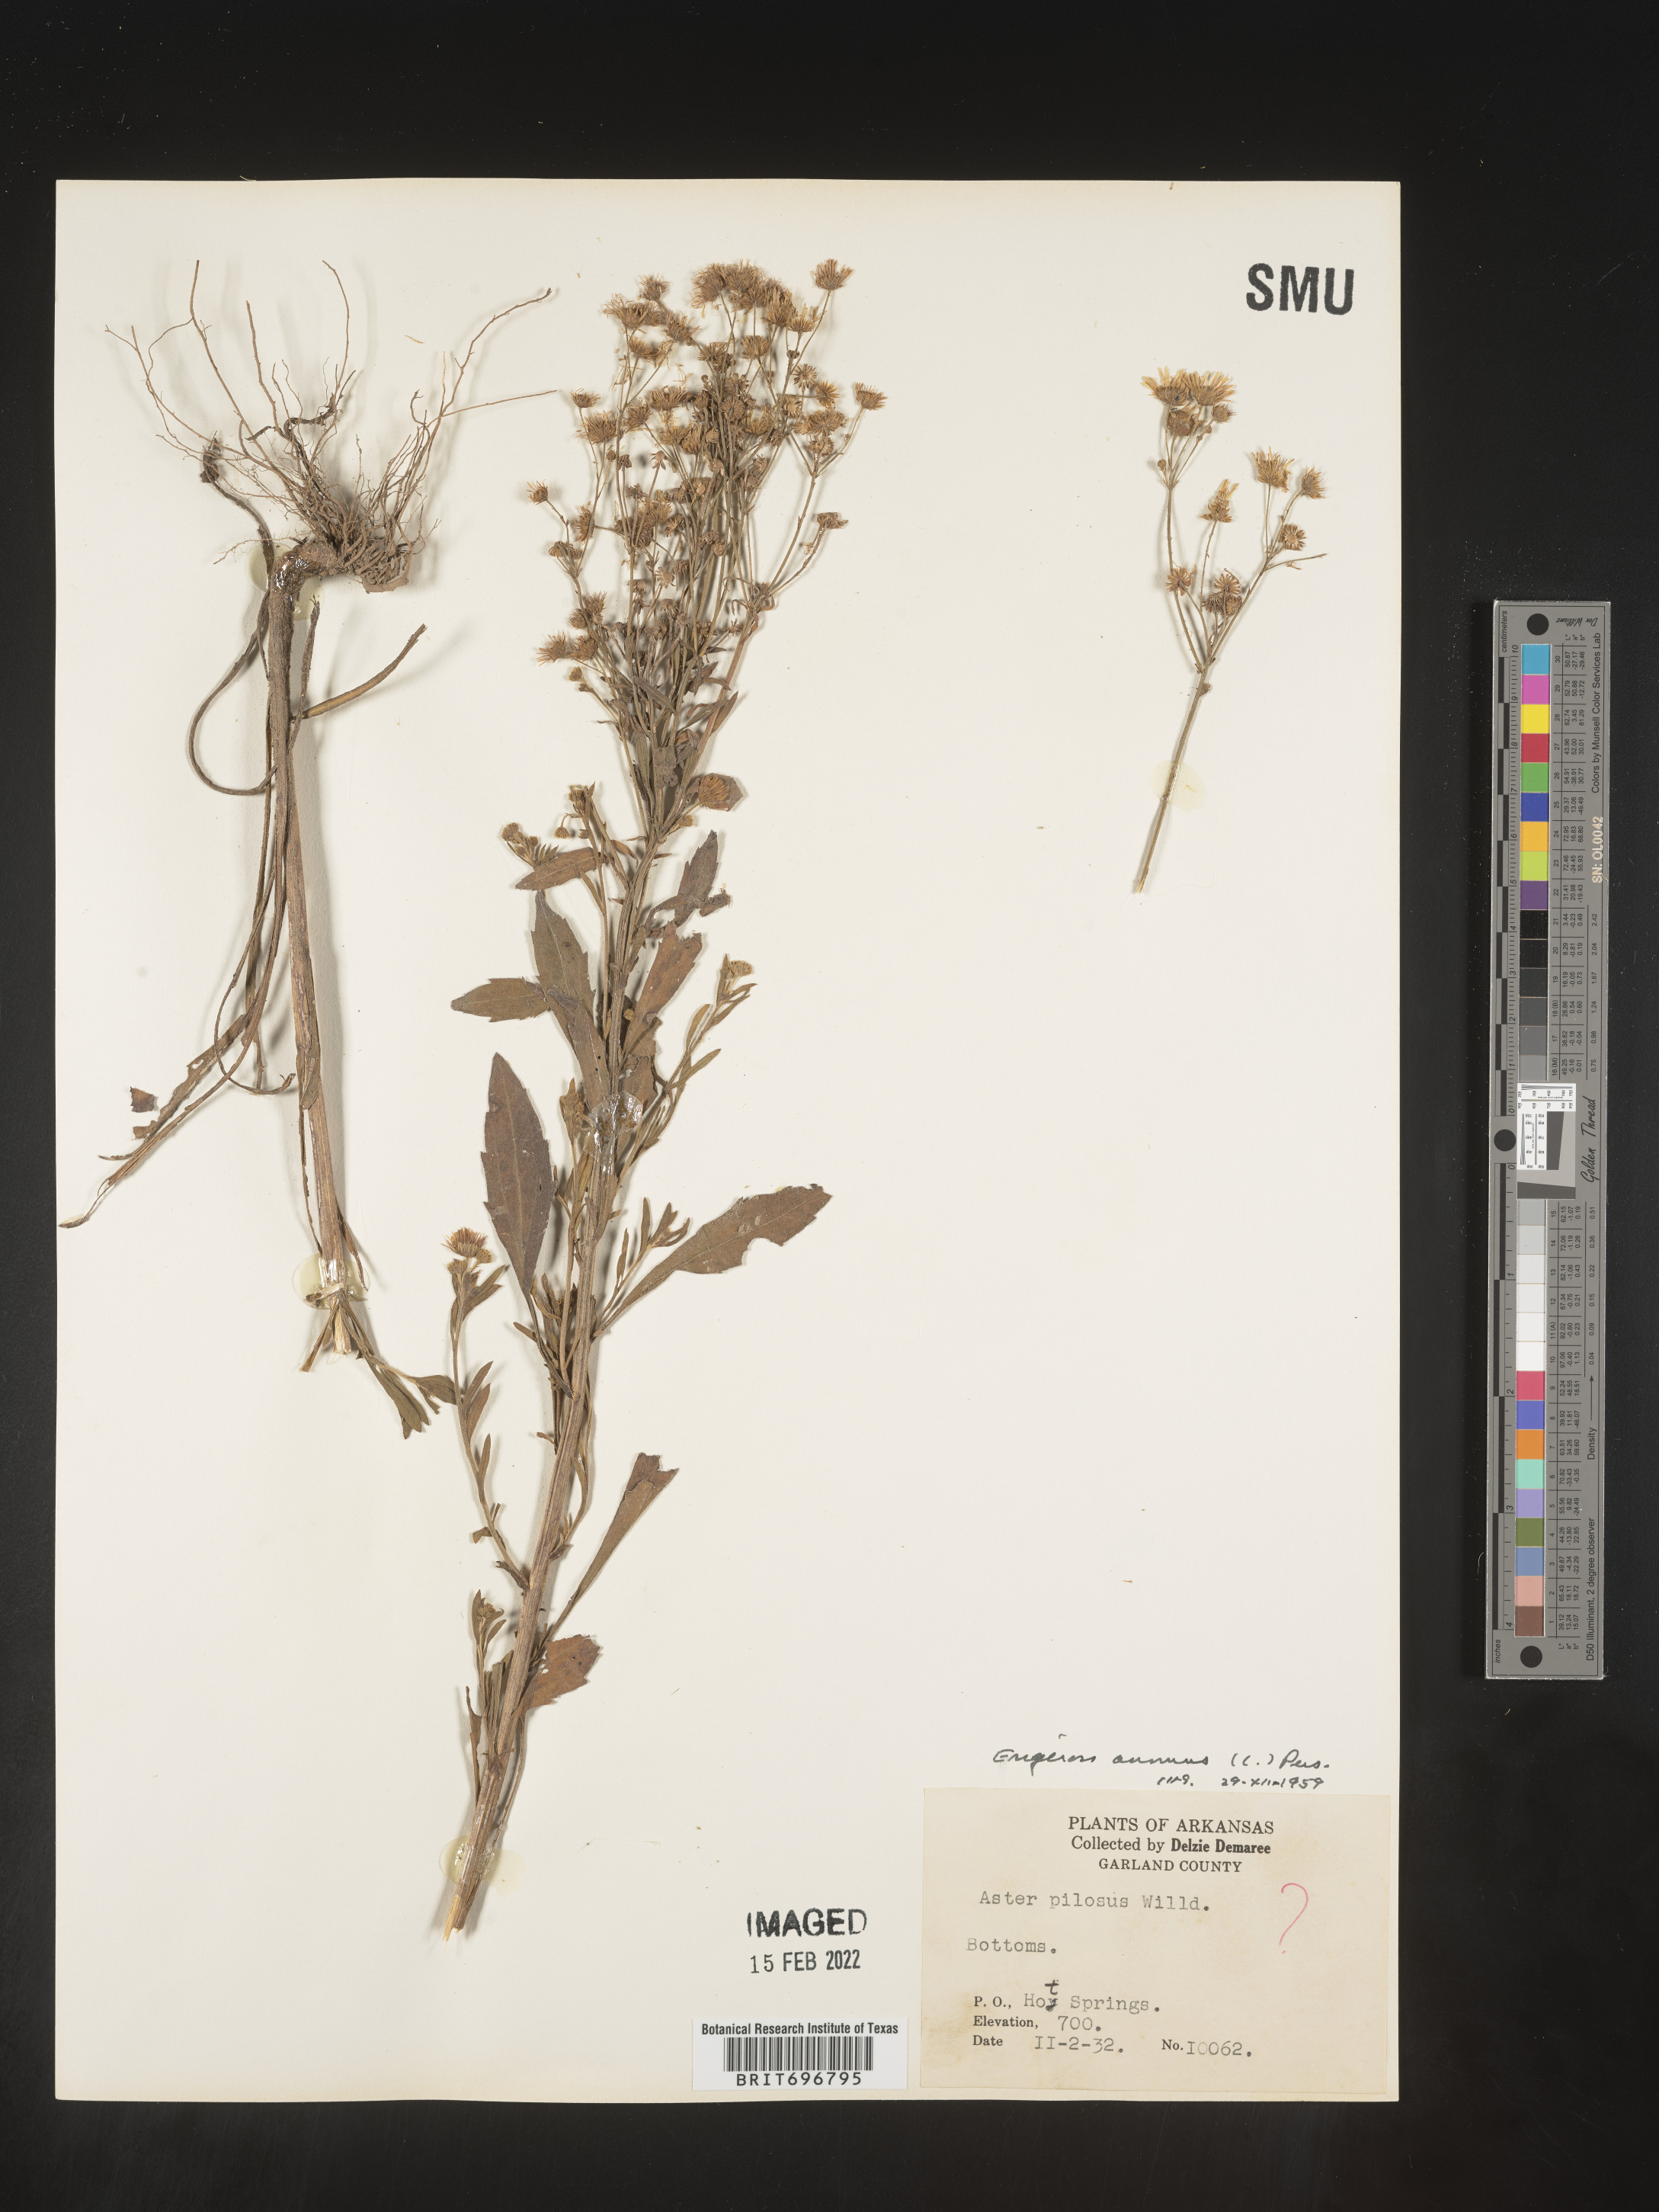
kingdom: Plantae
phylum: Tracheophyta
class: Magnoliopsida
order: Asterales
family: Asteraceae
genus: Erigeron
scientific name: Erigeron annuus
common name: Tall fleabane
